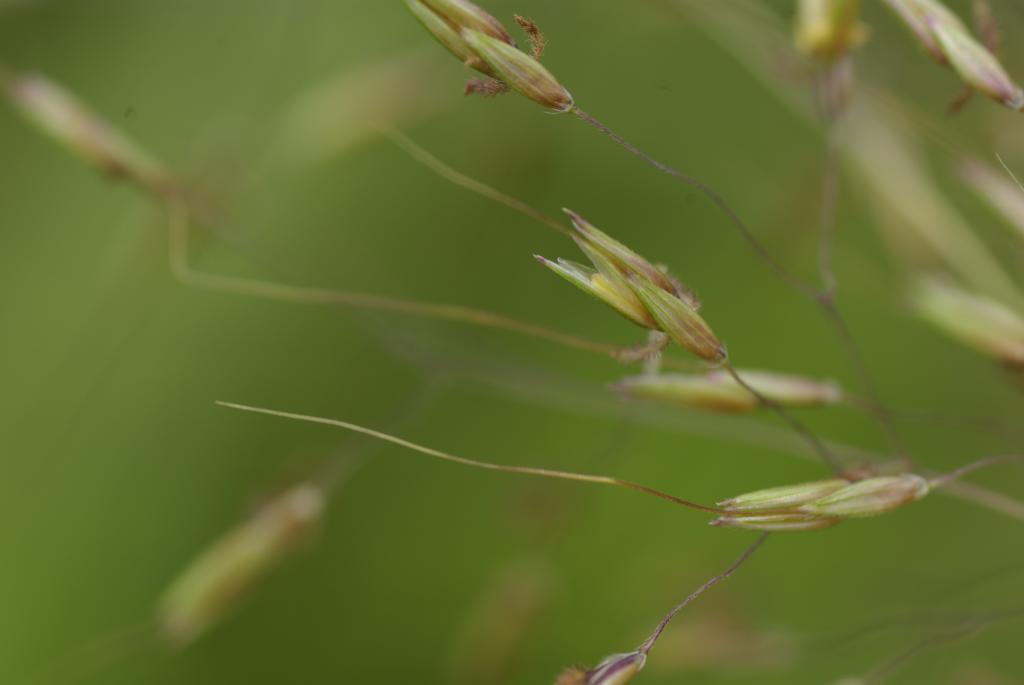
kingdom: Plantae
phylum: Tracheophyta
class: Liliopsida
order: Poales
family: Poaceae
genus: Capillipedium
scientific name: Capillipedium parviflorum
